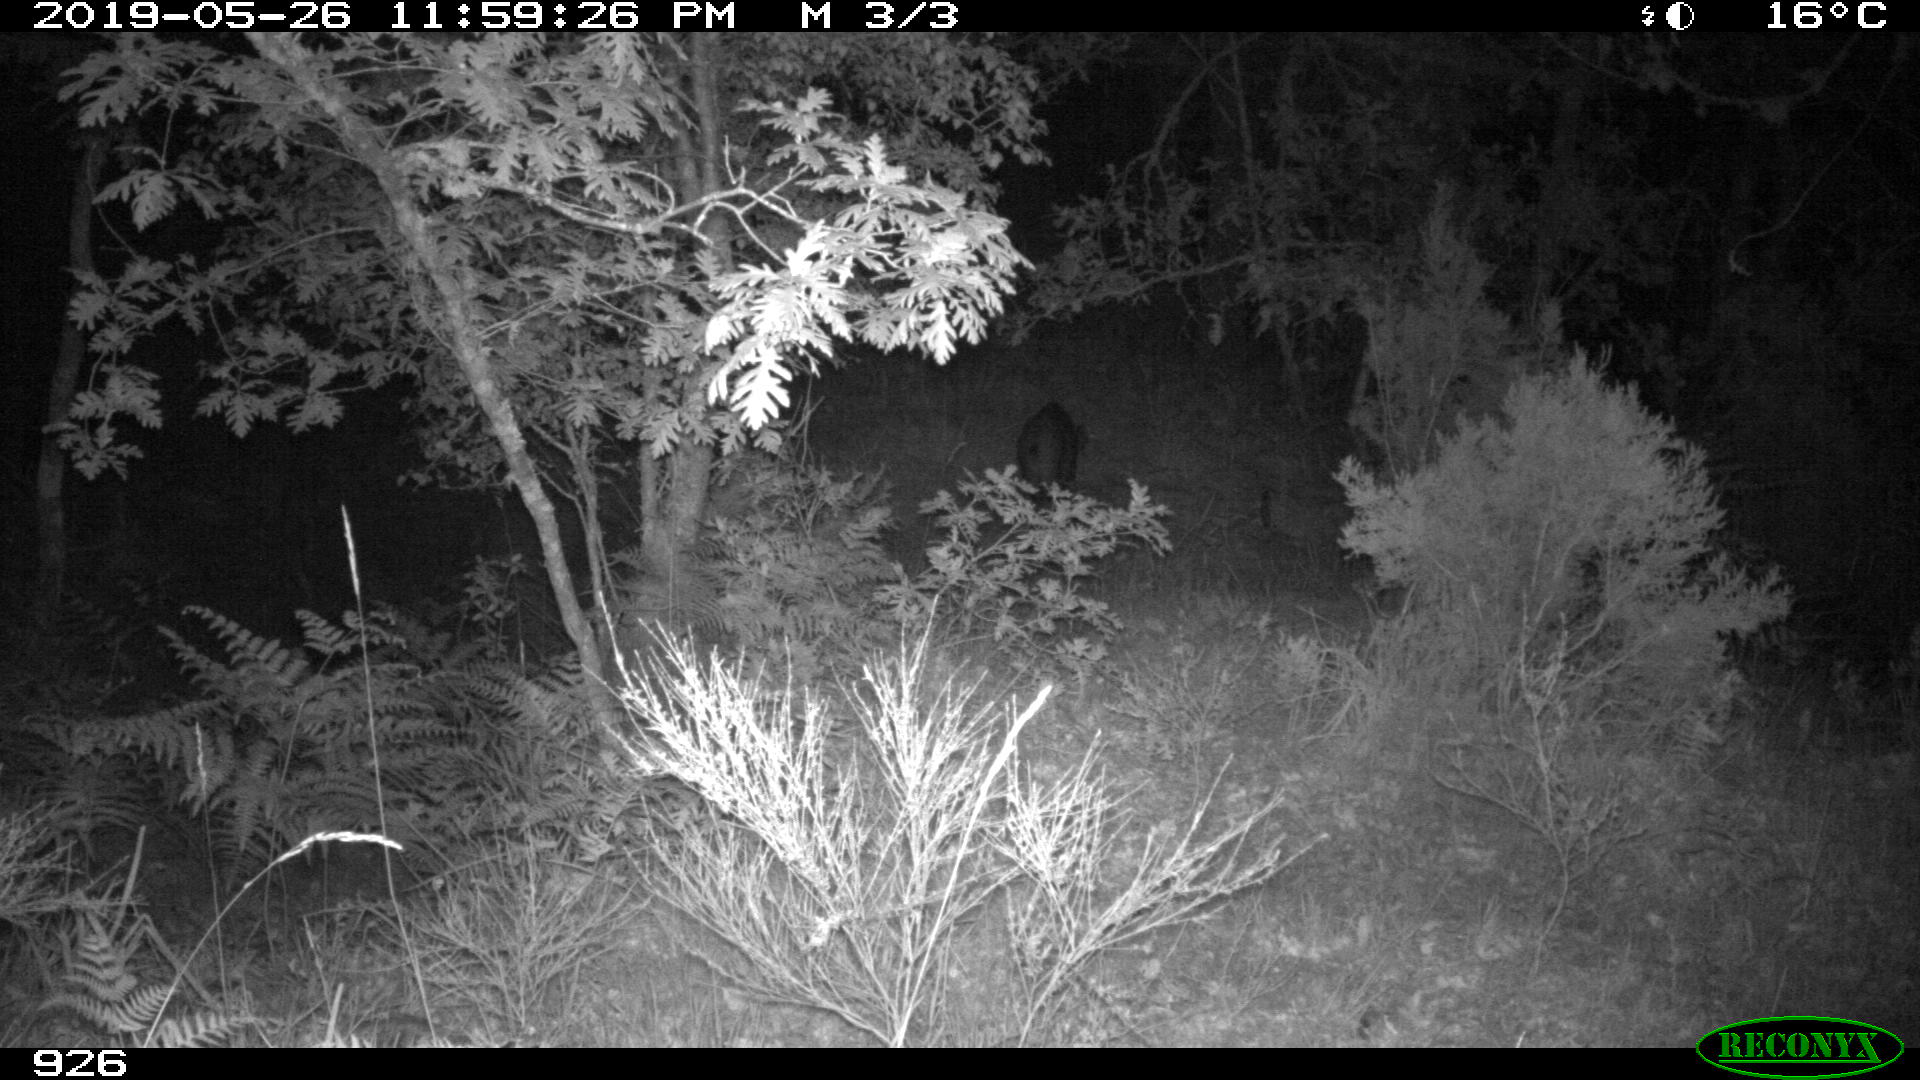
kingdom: Animalia
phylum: Chordata
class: Mammalia
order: Artiodactyla
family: Suidae
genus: Sus
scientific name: Sus scrofa
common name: Wild boar
